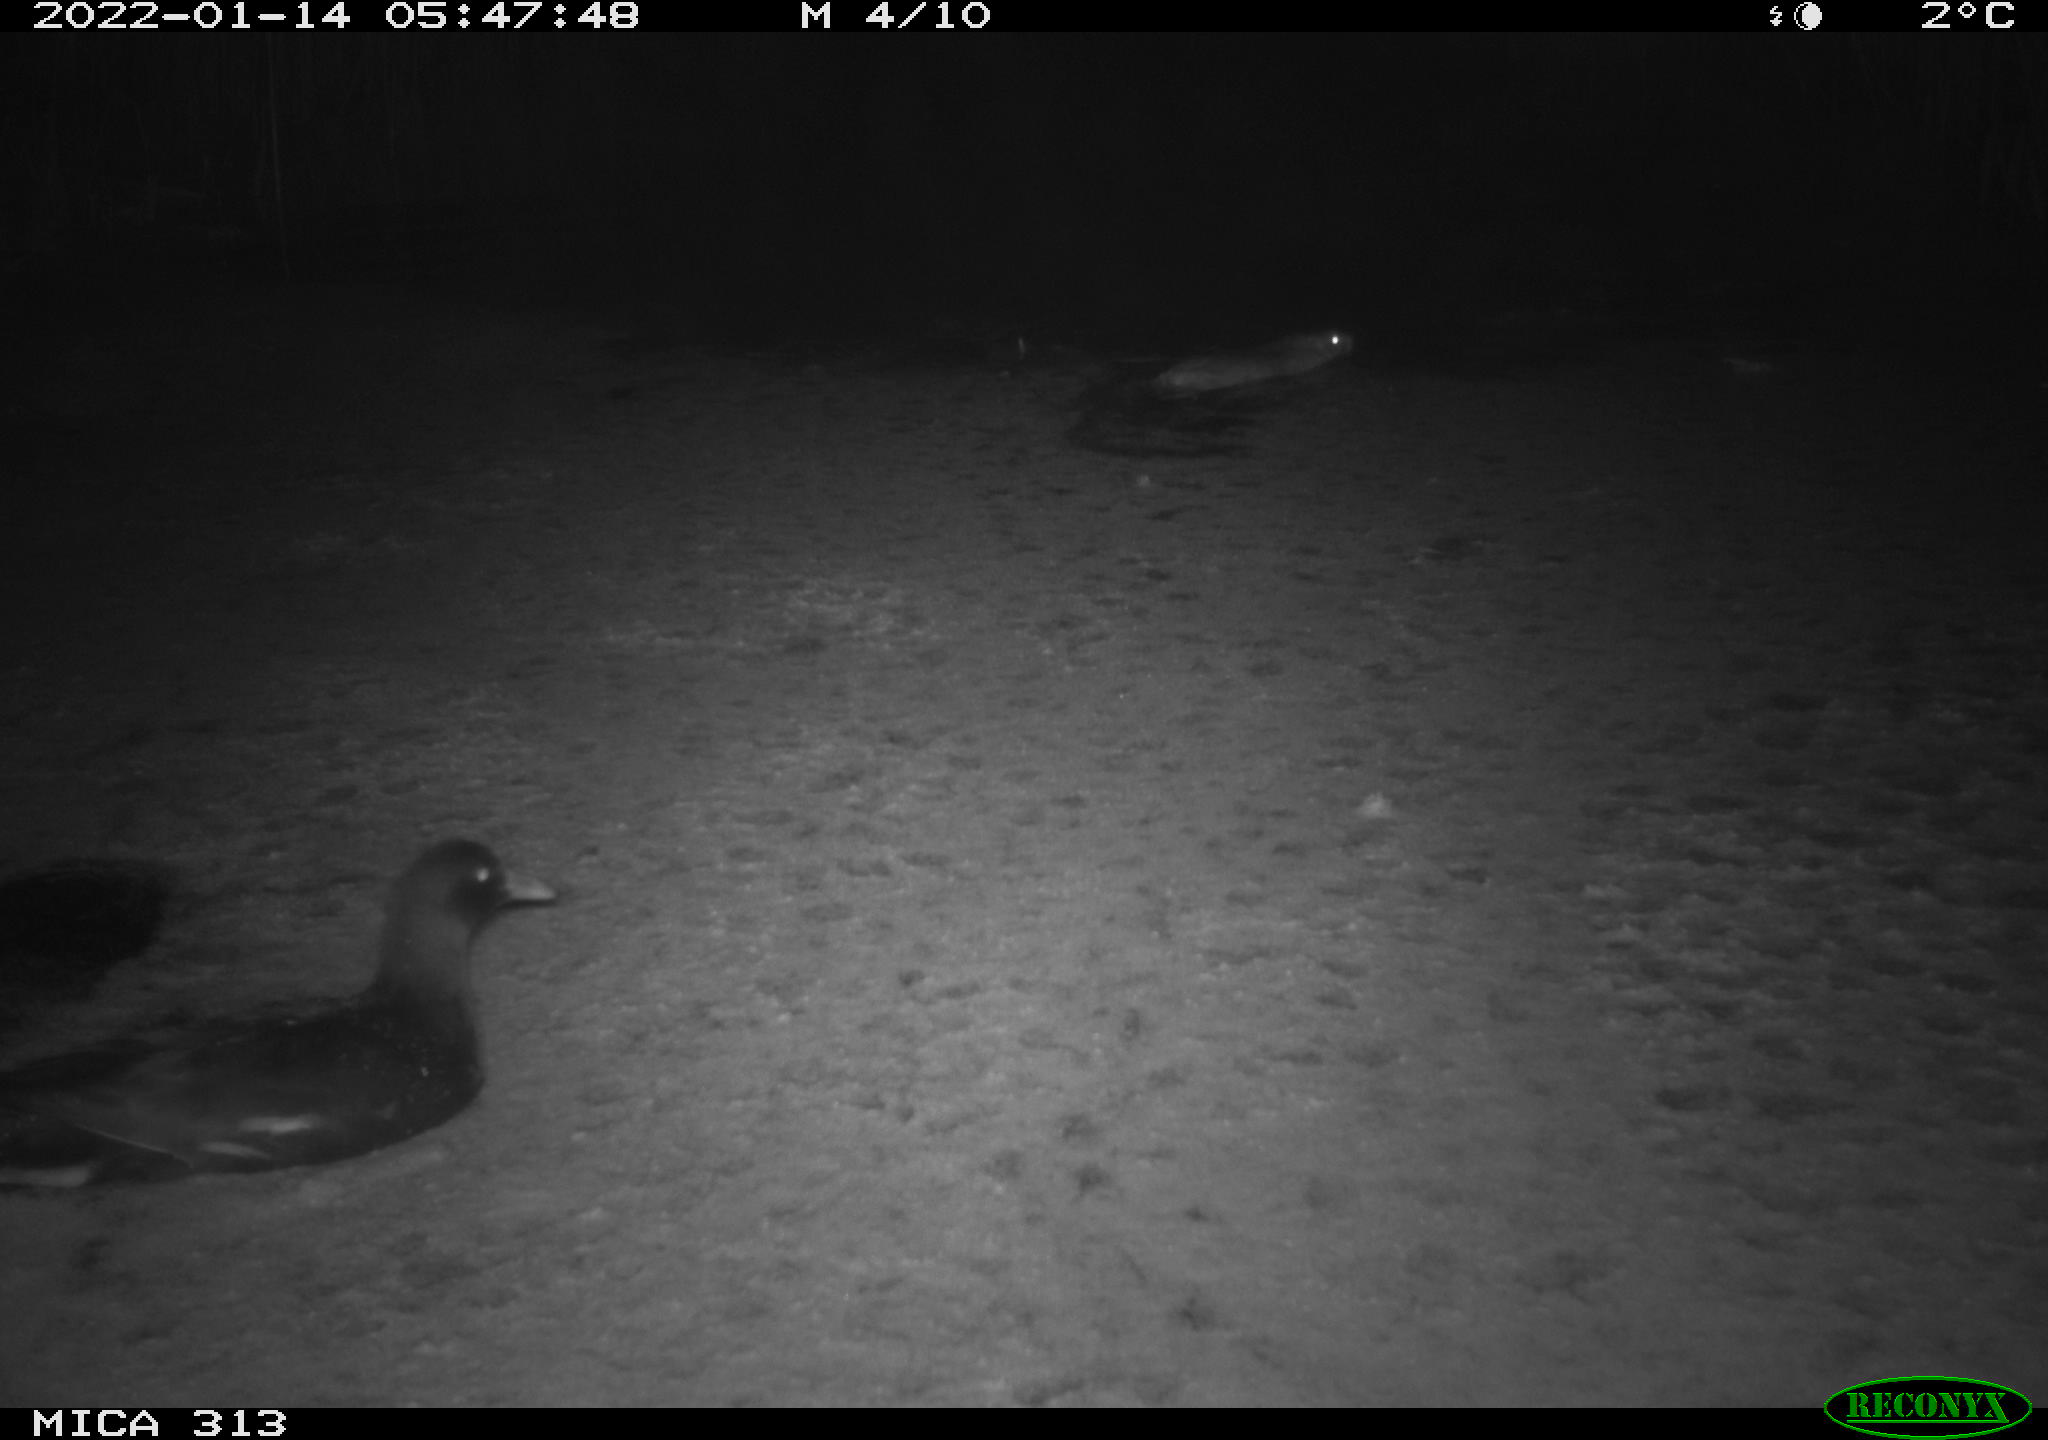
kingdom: Animalia
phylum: Chordata
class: Mammalia
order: Rodentia
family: Muridae
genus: Rattus
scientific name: Rattus norvegicus
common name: Brown rat
